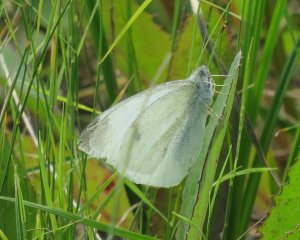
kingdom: Animalia
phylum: Arthropoda
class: Insecta
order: Lepidoptera
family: Pieridae
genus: Pieris
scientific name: Pieris rapae
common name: Cabbage White
